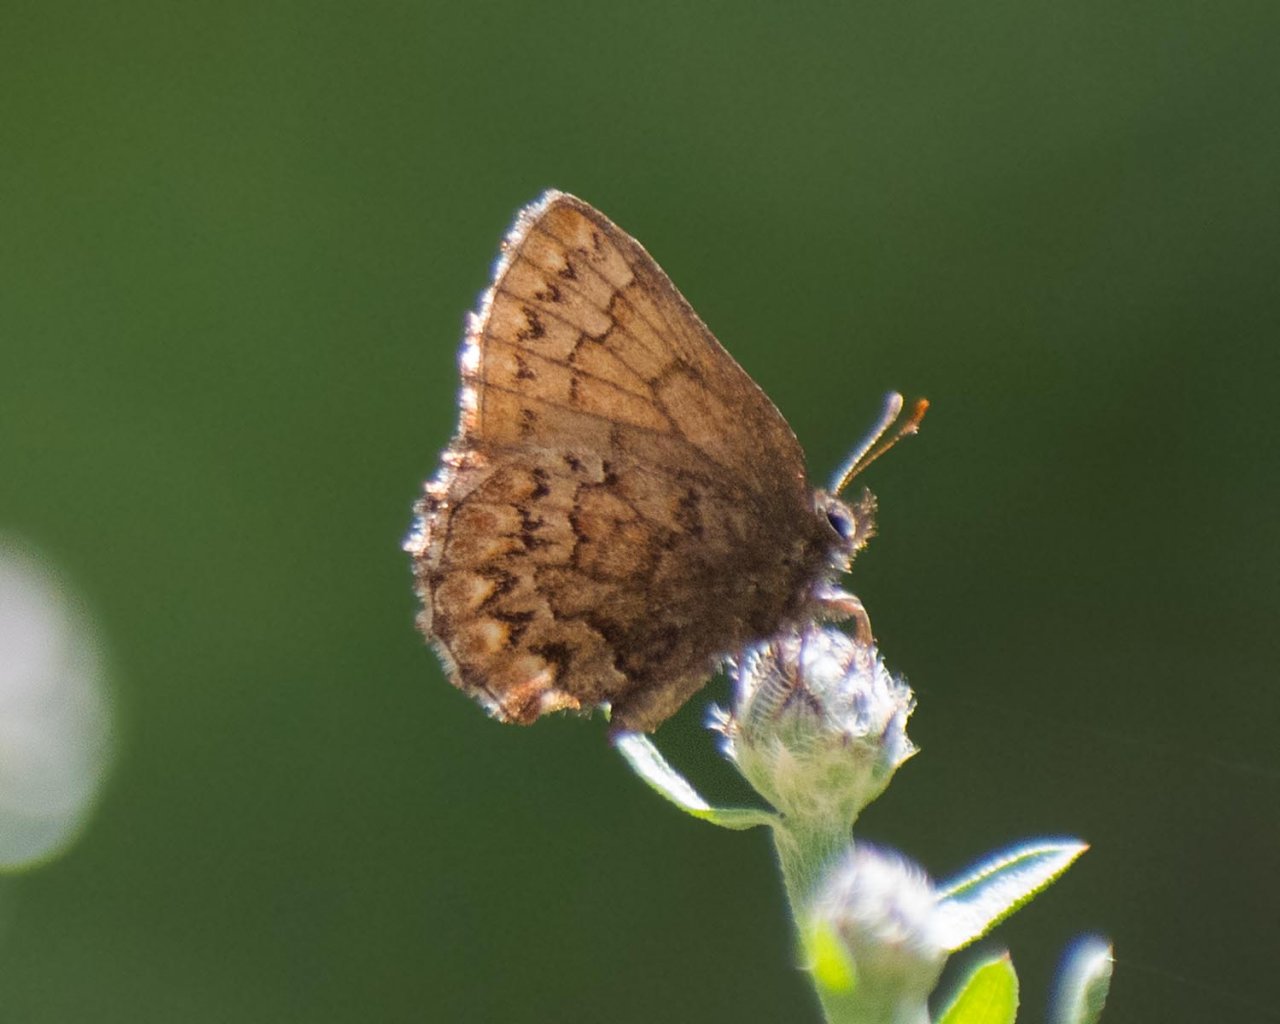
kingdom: Animalia
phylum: Arthropoda
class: Insecta
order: Lepidoptera
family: Lycaenidae
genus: Incisalia
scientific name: Incisalia eryphon
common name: Western Pine Elfin
